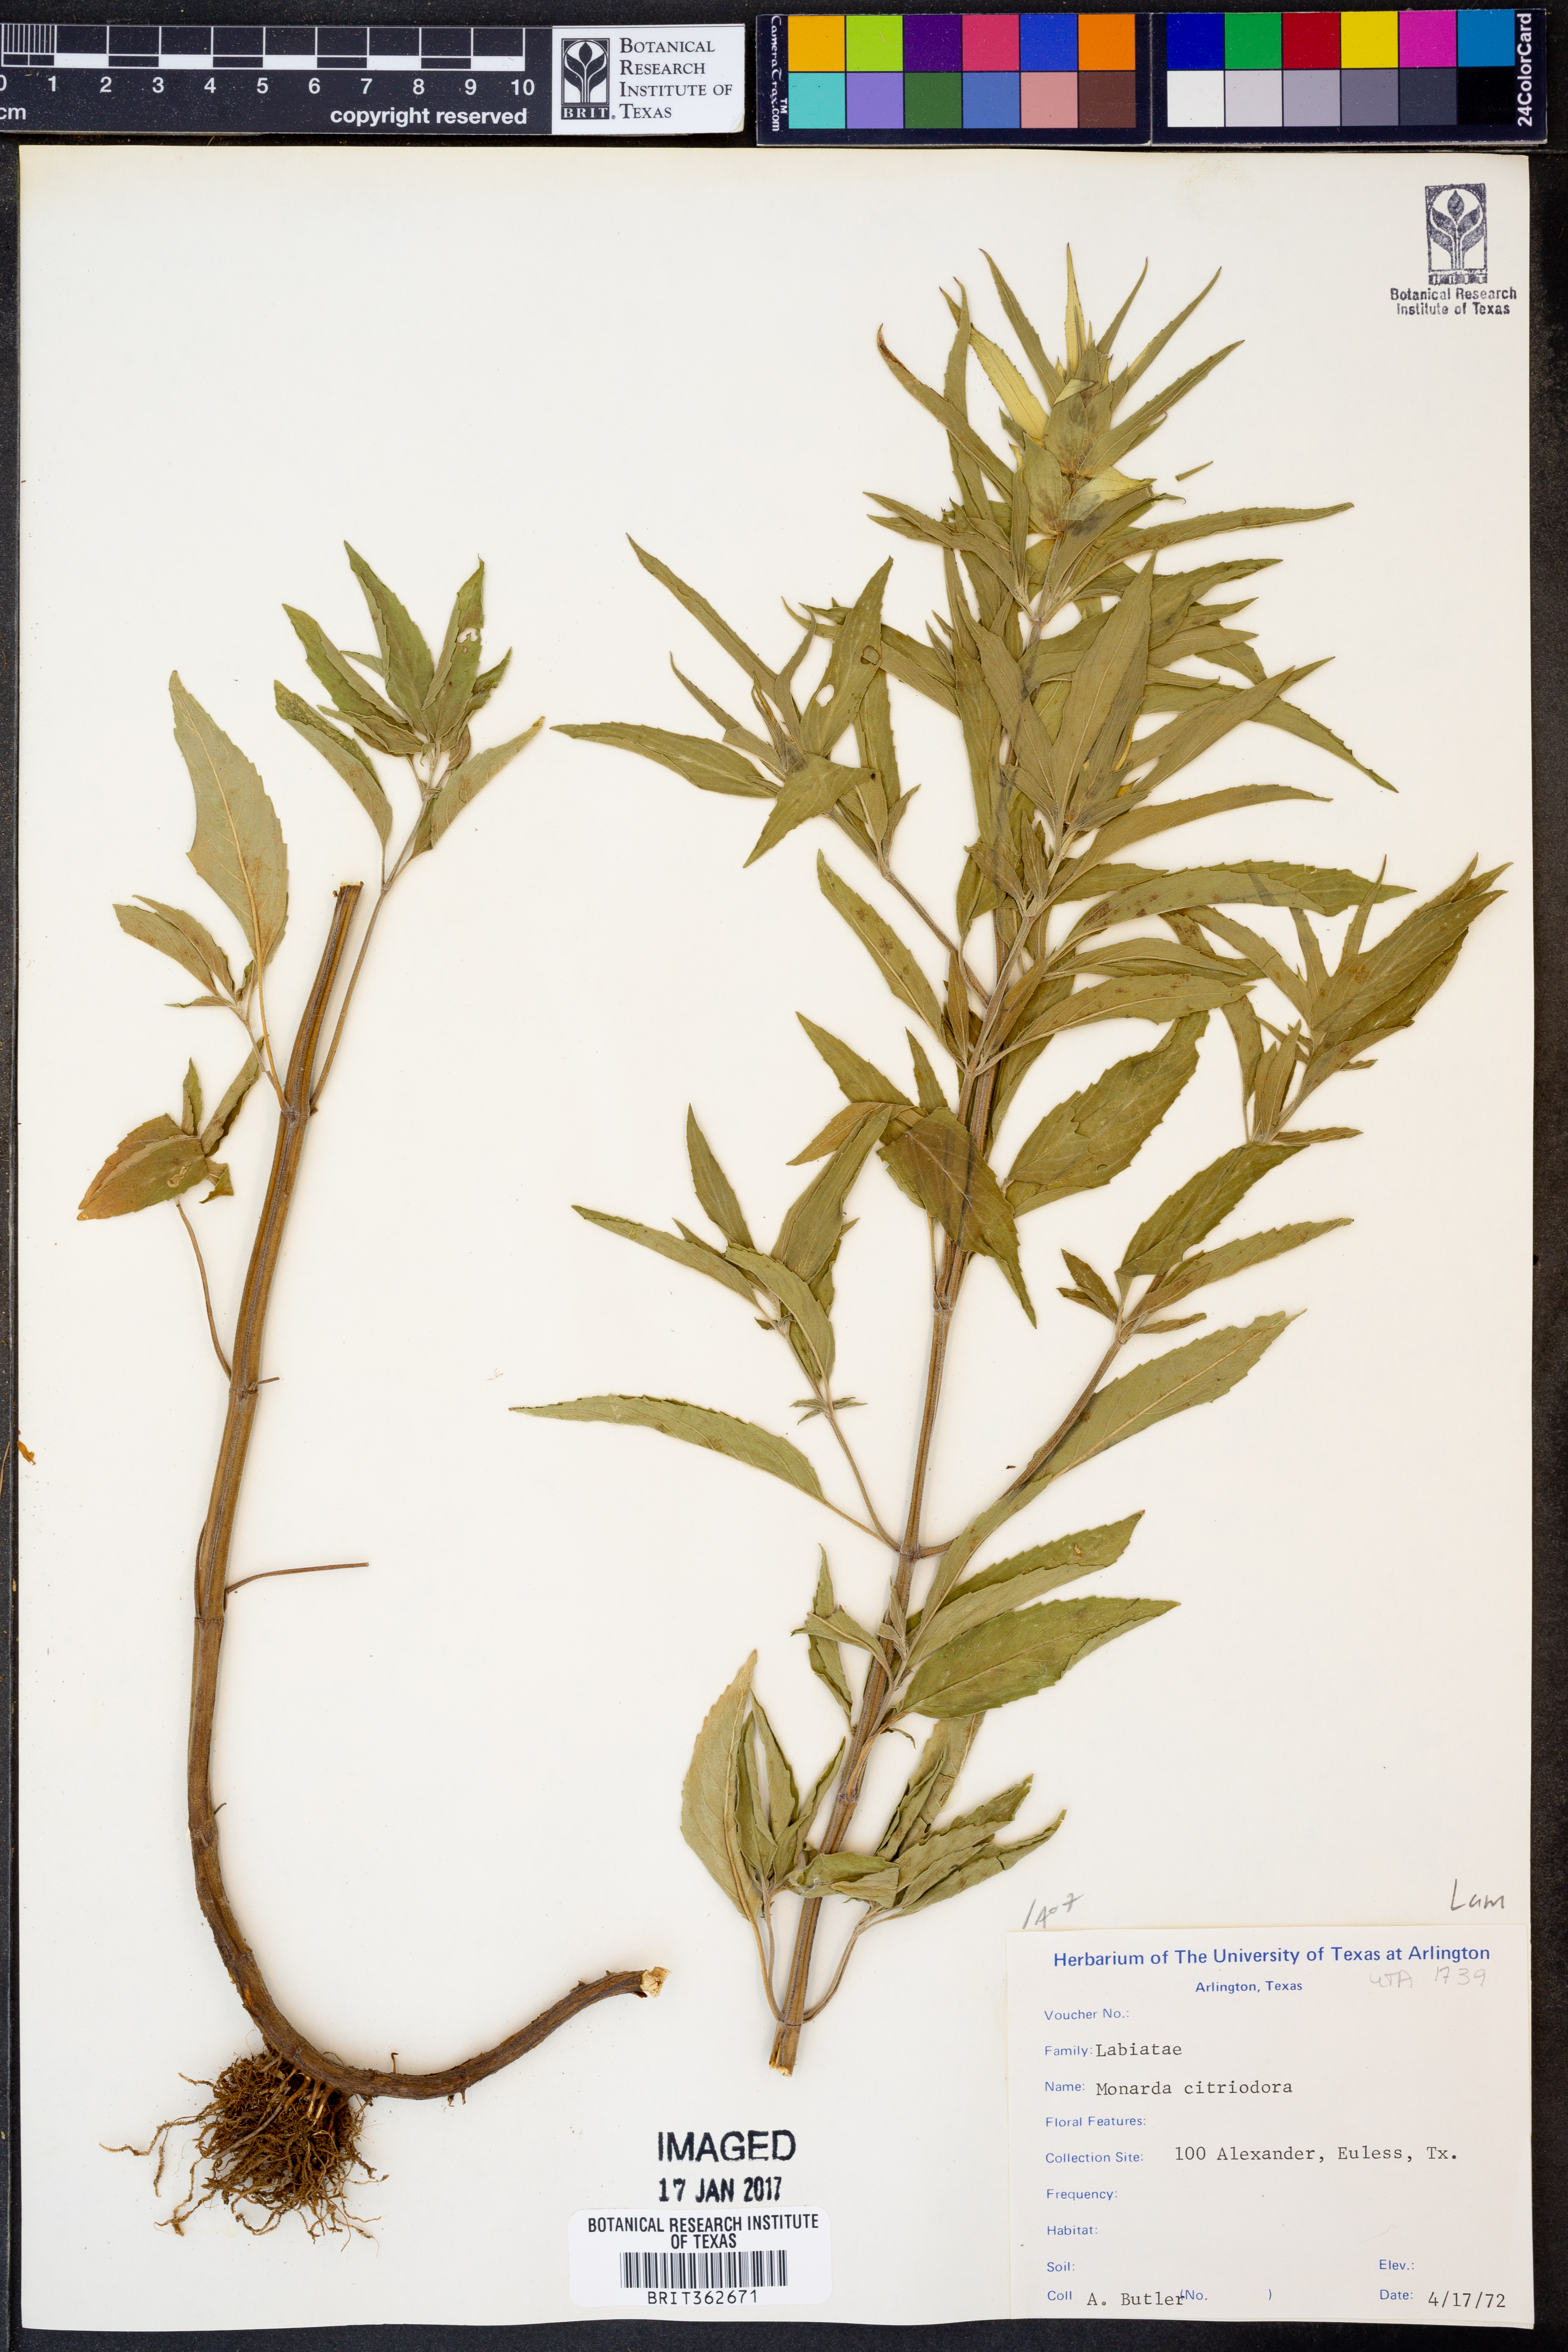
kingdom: Plantae
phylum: Tracheophyta
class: Magnoliopsida
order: Lamiales
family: Lamiaceae
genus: Monarda
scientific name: Monarda citriodora
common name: Lemon beebalm
